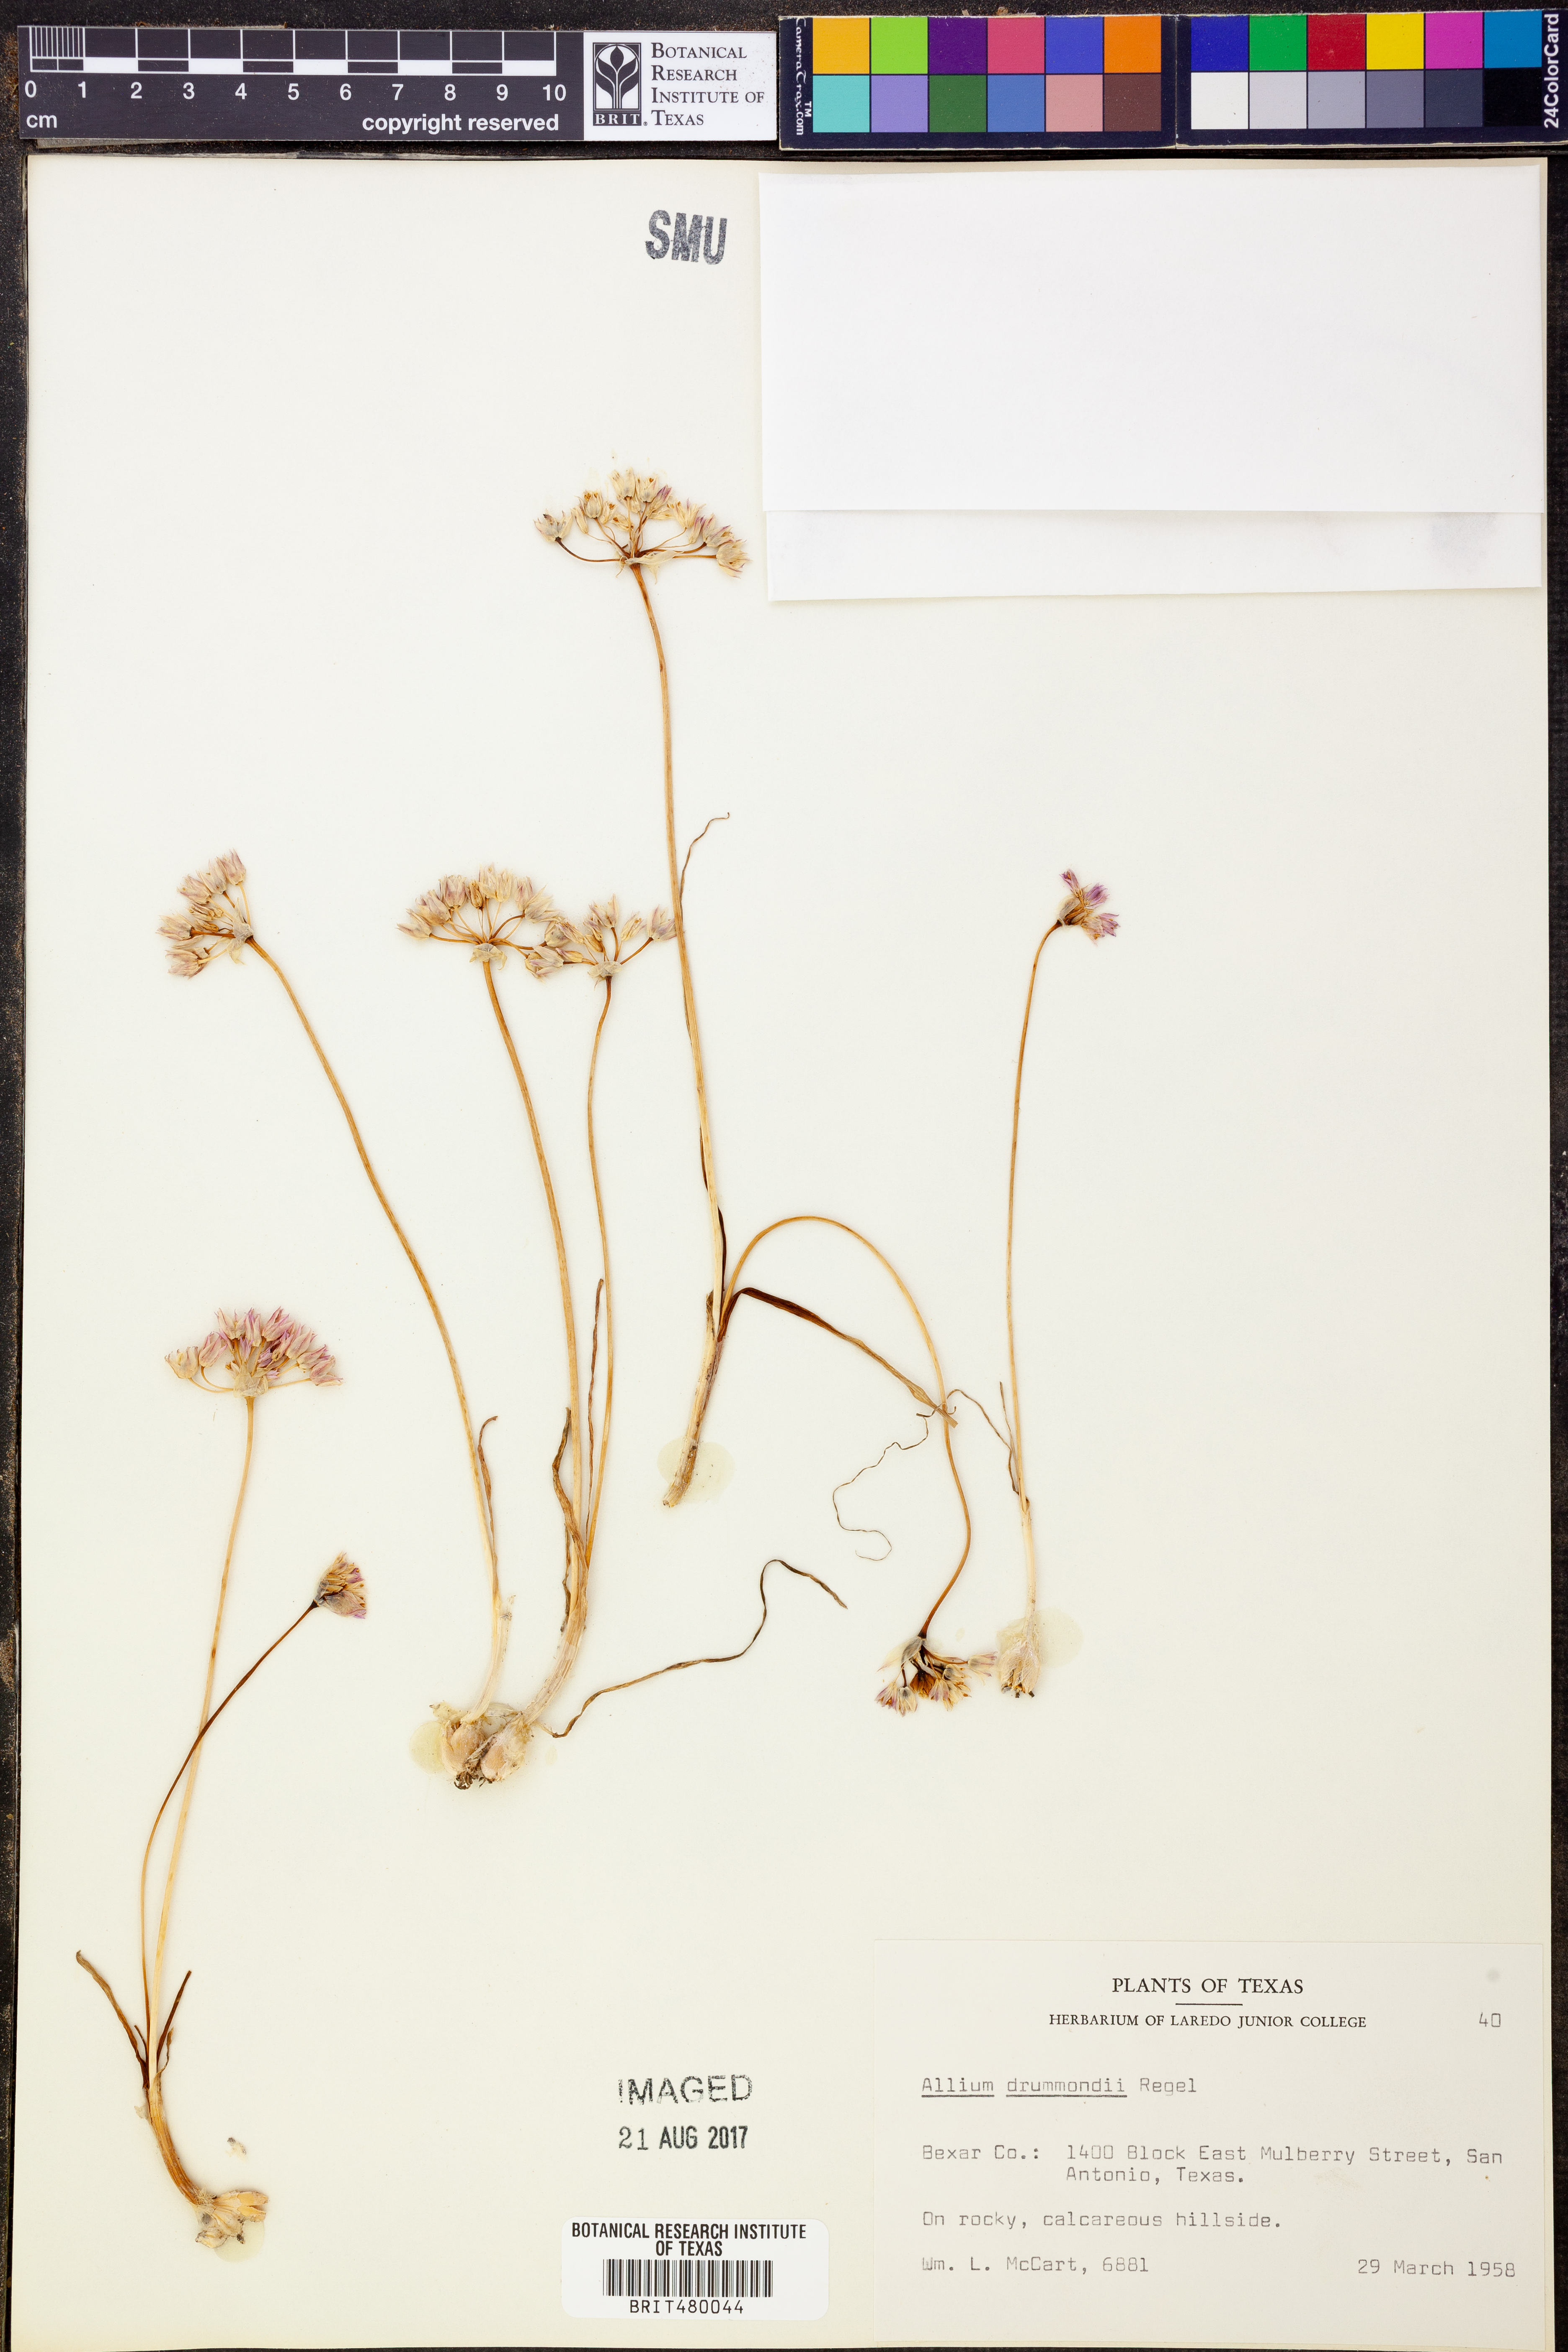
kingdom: Plantae
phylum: Tracheophyta
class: Liliopsida
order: Asparagales
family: Amaryllidaceae
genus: Allium
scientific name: Allium drummondii
